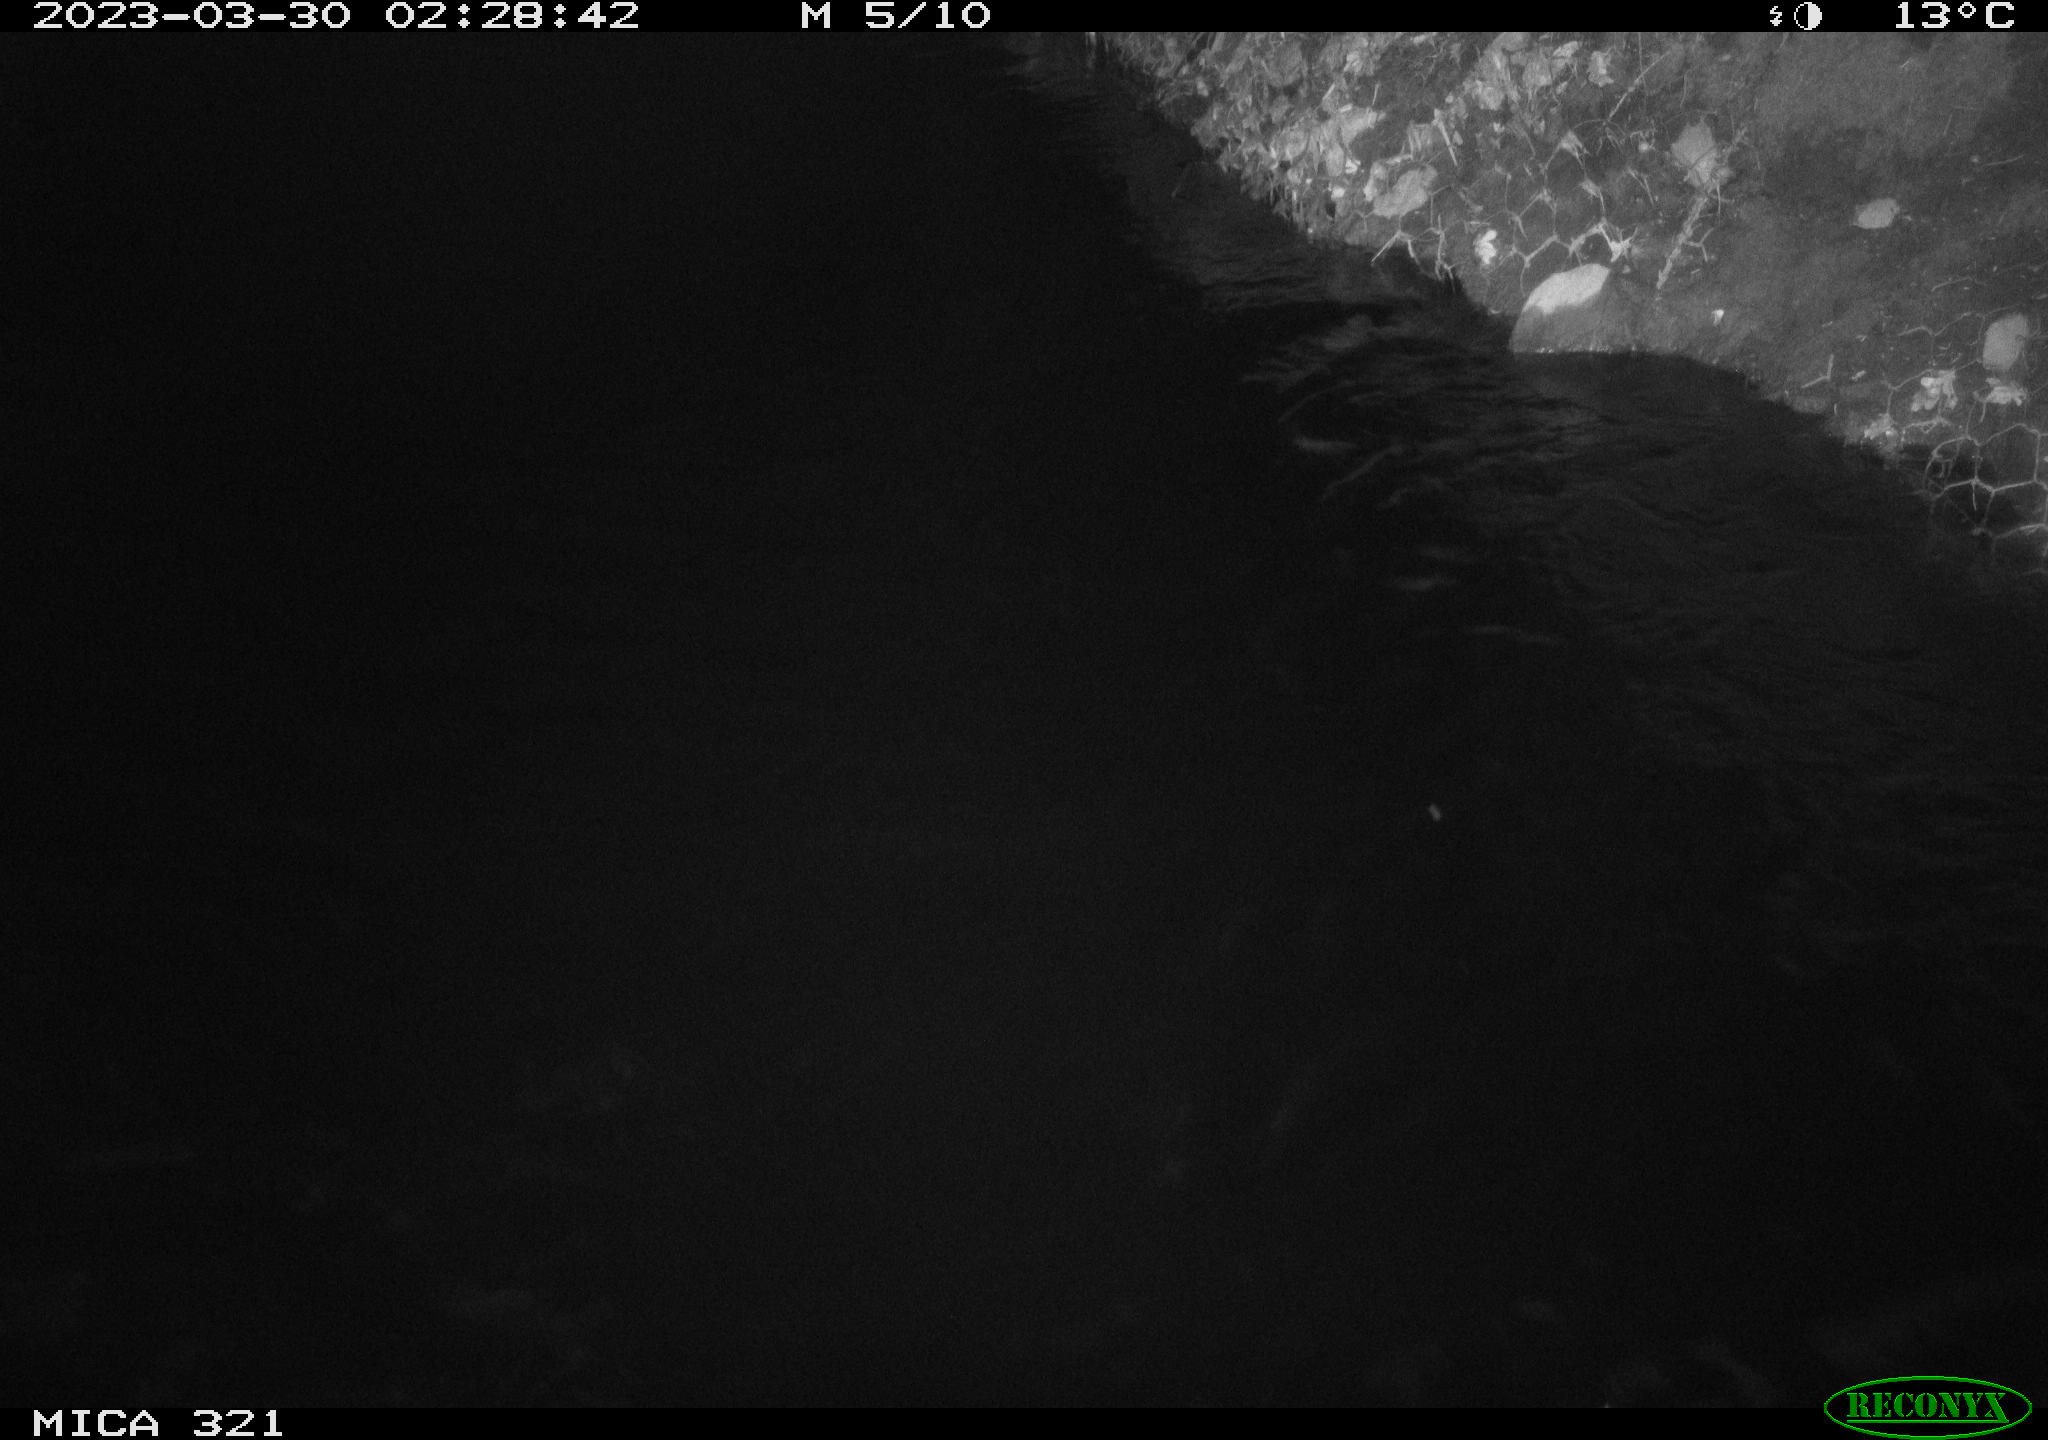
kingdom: Animalia
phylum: Chordata
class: Aves
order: Anseriformes
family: Anatidae
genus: Anas
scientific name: Anas
